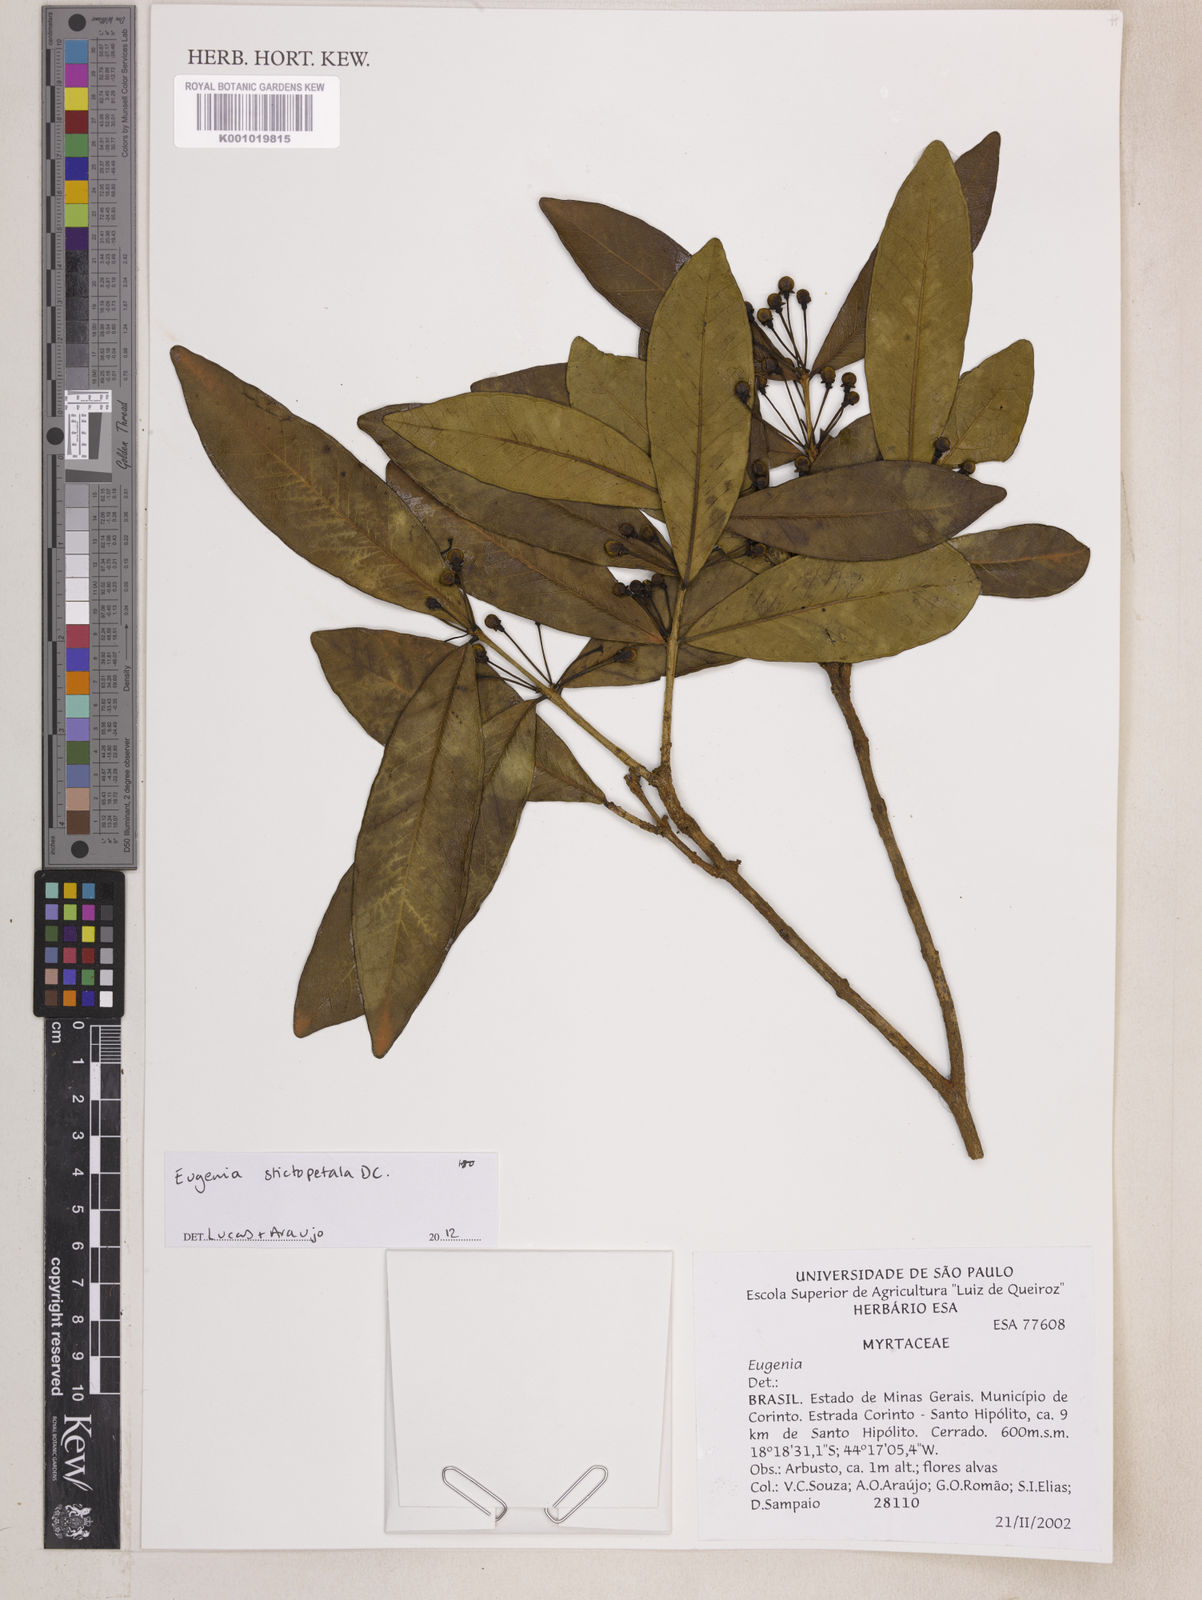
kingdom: Plantae
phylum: Tracheophyta
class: Magnoliopsida
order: Myrtales
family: Myrtaceae
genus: Eugenia
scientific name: Eugenia stictopetala
